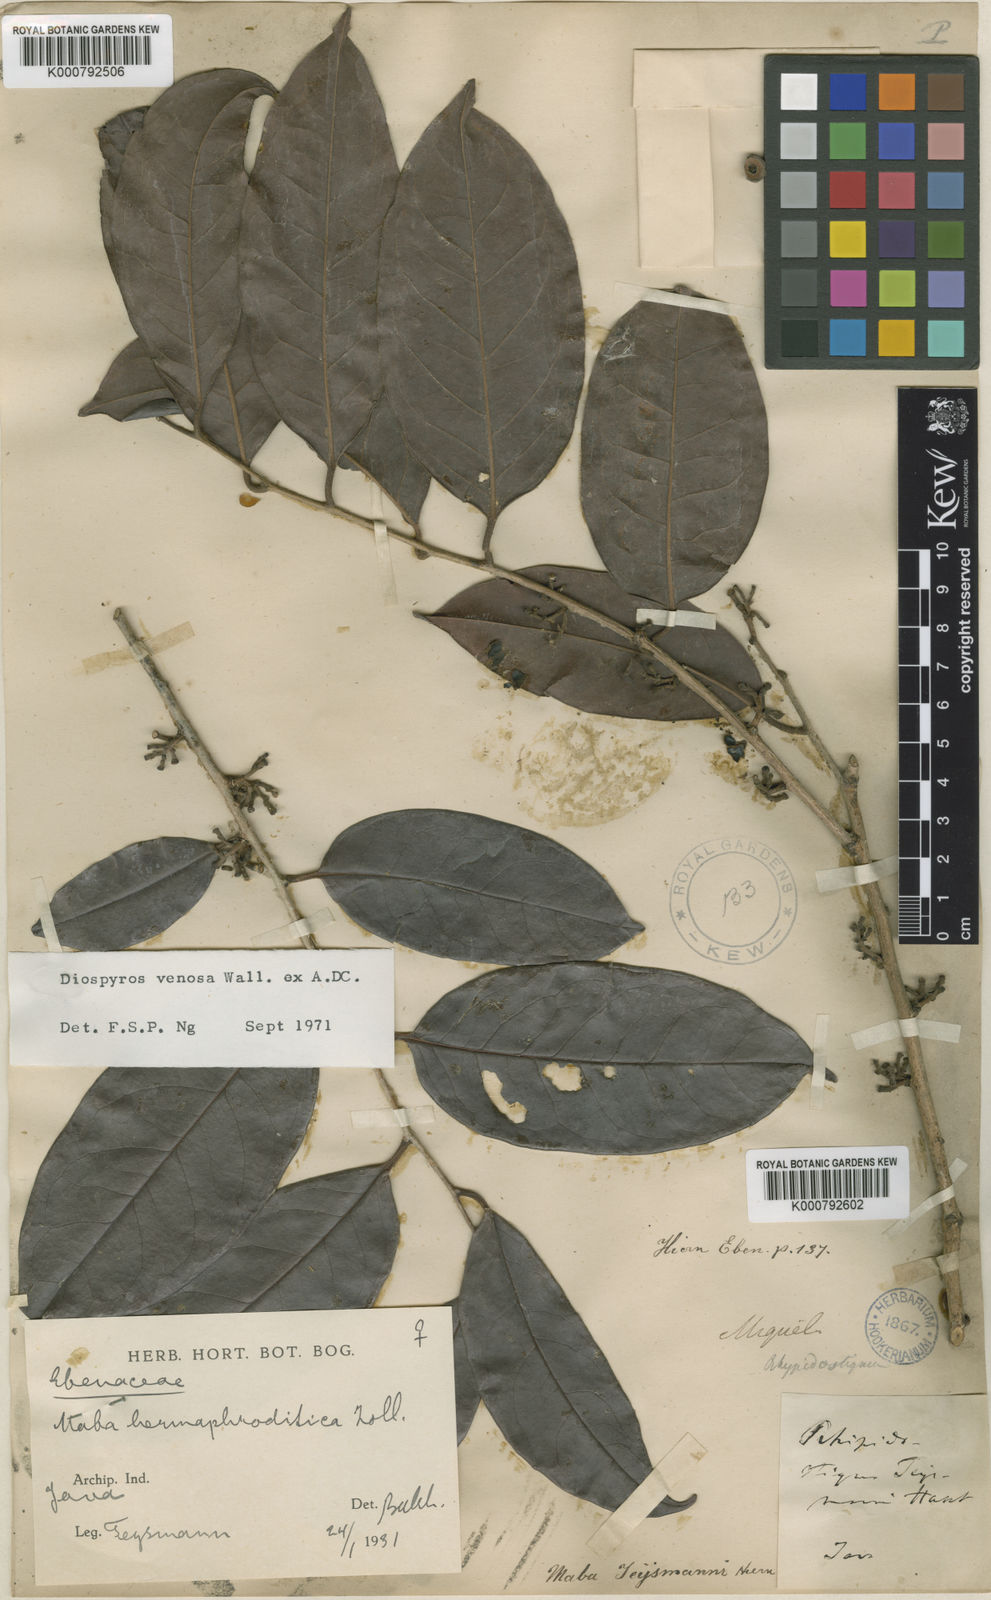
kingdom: Plantae
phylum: Tracheophyta
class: Magnoliopsida
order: Ericales
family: Ebenaceae
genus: Diospyros
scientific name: Diospyros venosa
